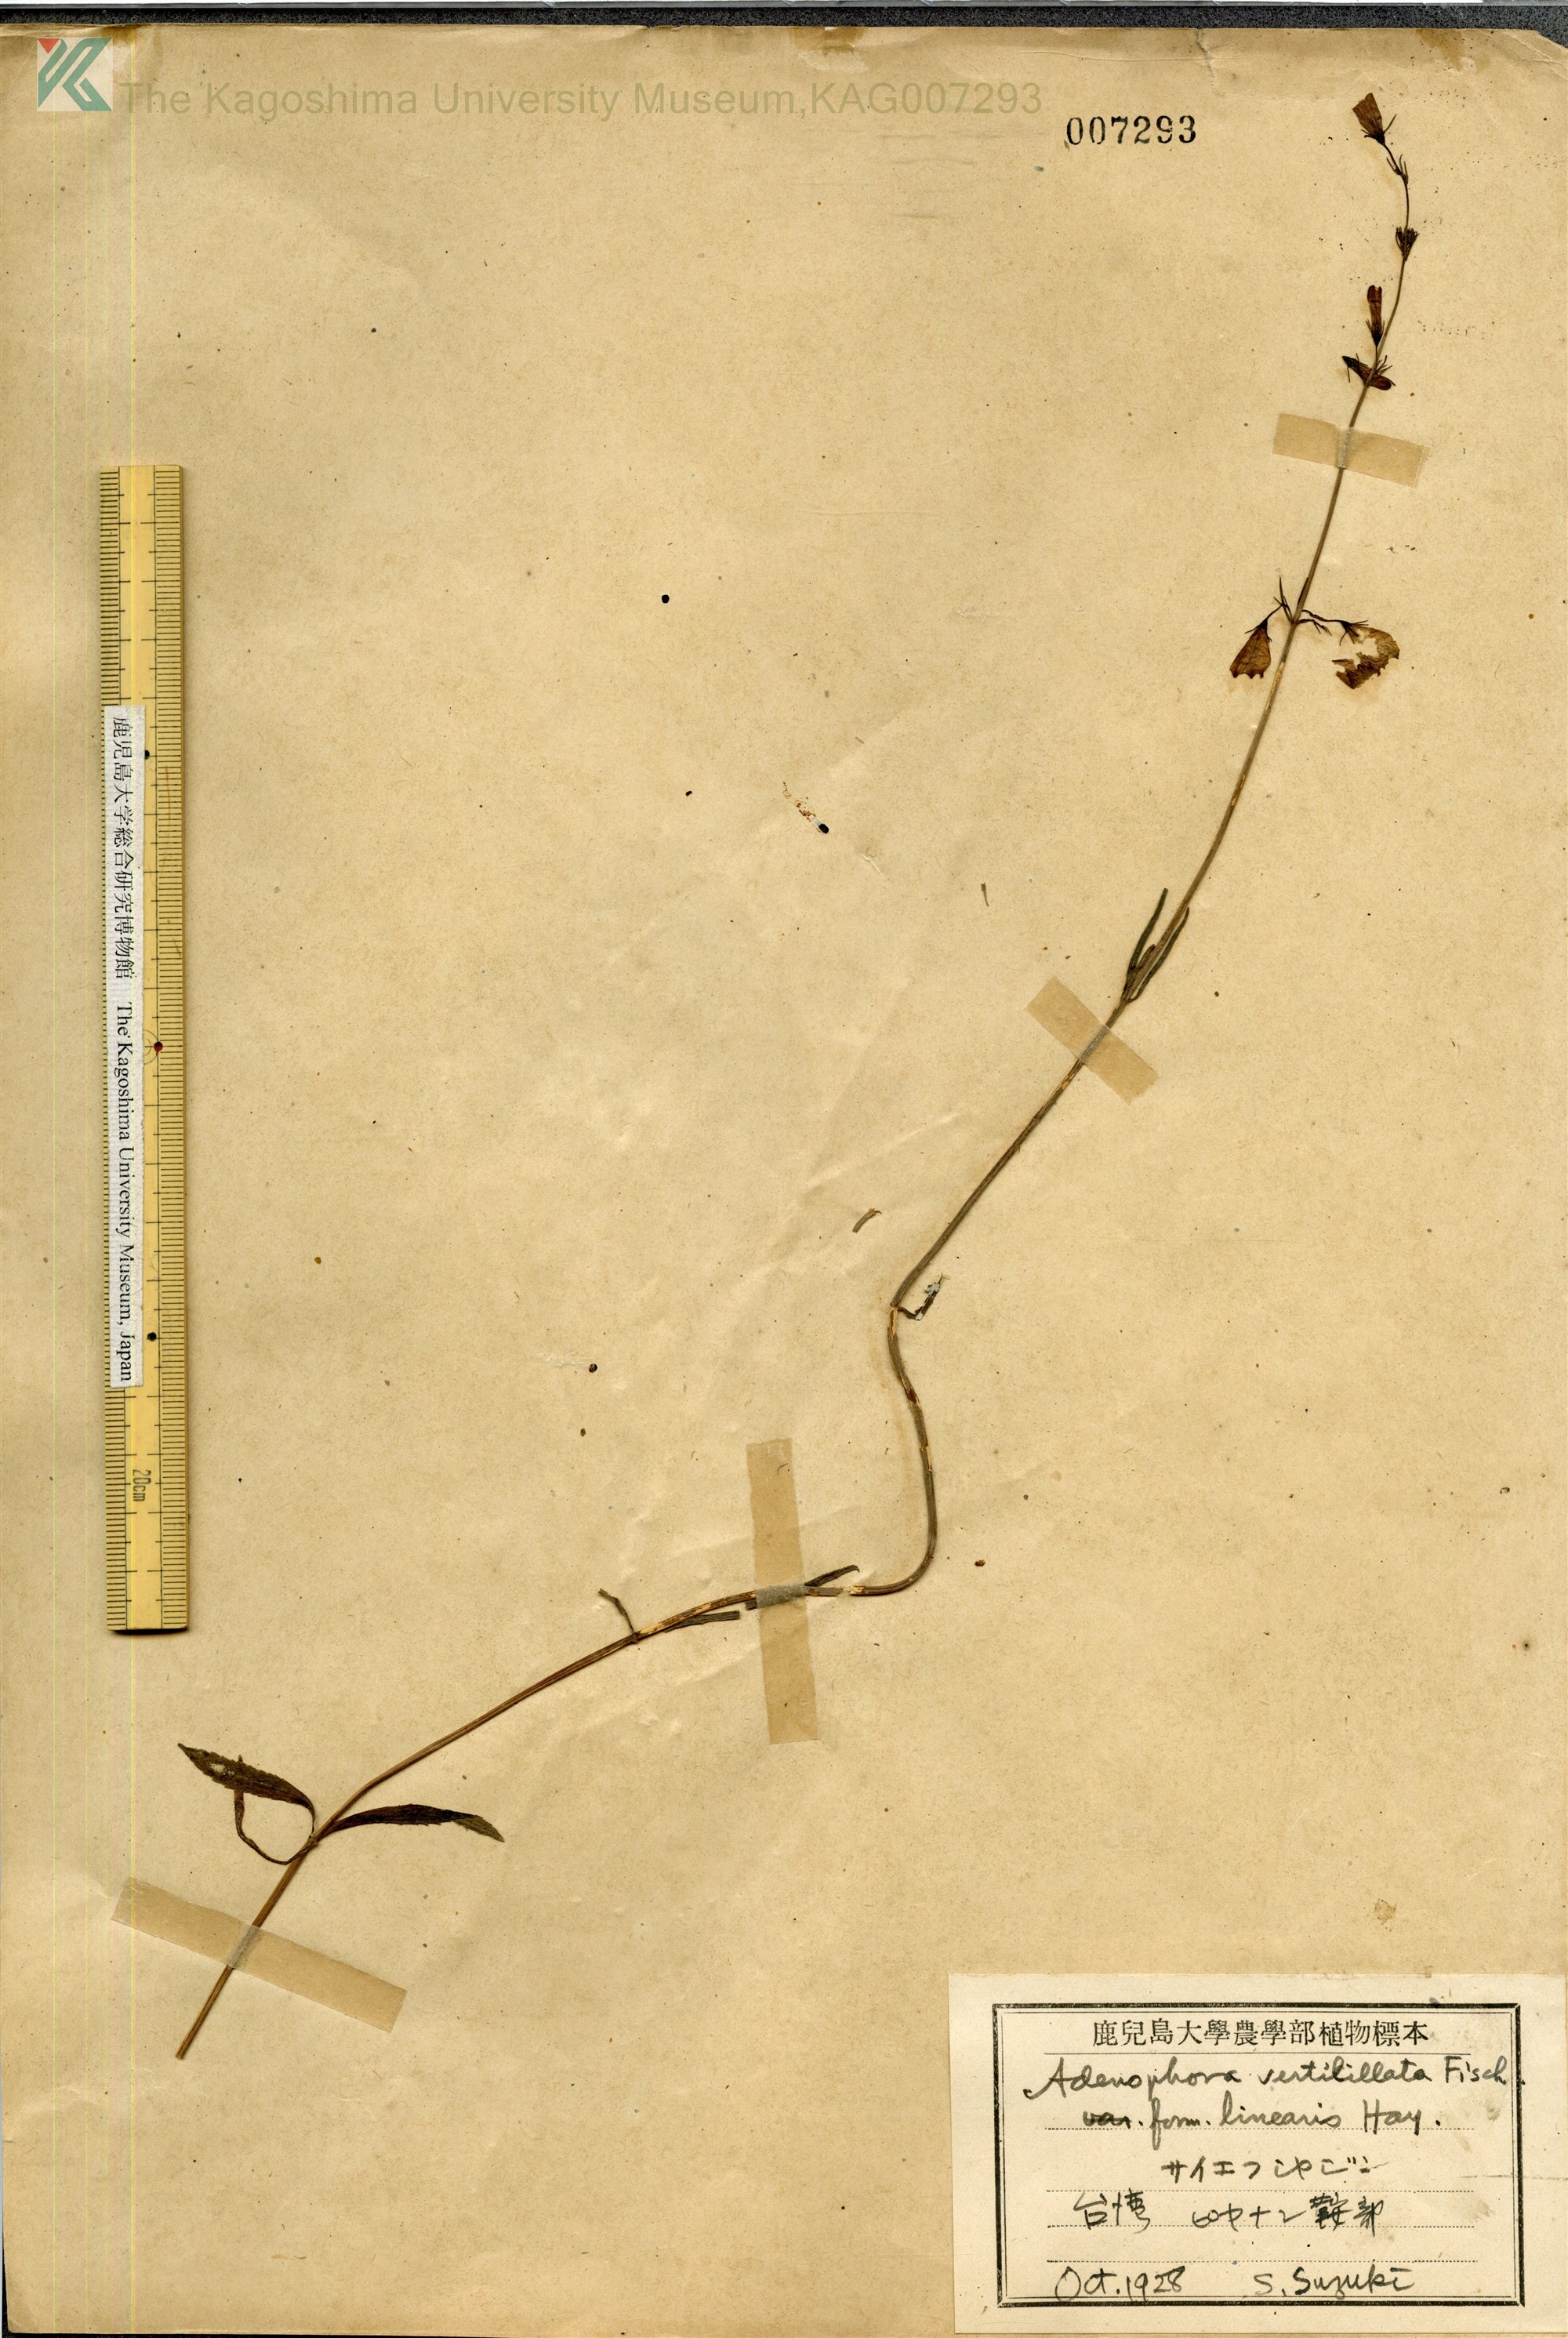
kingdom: Plantae
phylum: Tracheophyta
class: Magnoliopsida
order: Asterales
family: Campanulaceae
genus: Adenophora
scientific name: Adenophora triphylla
